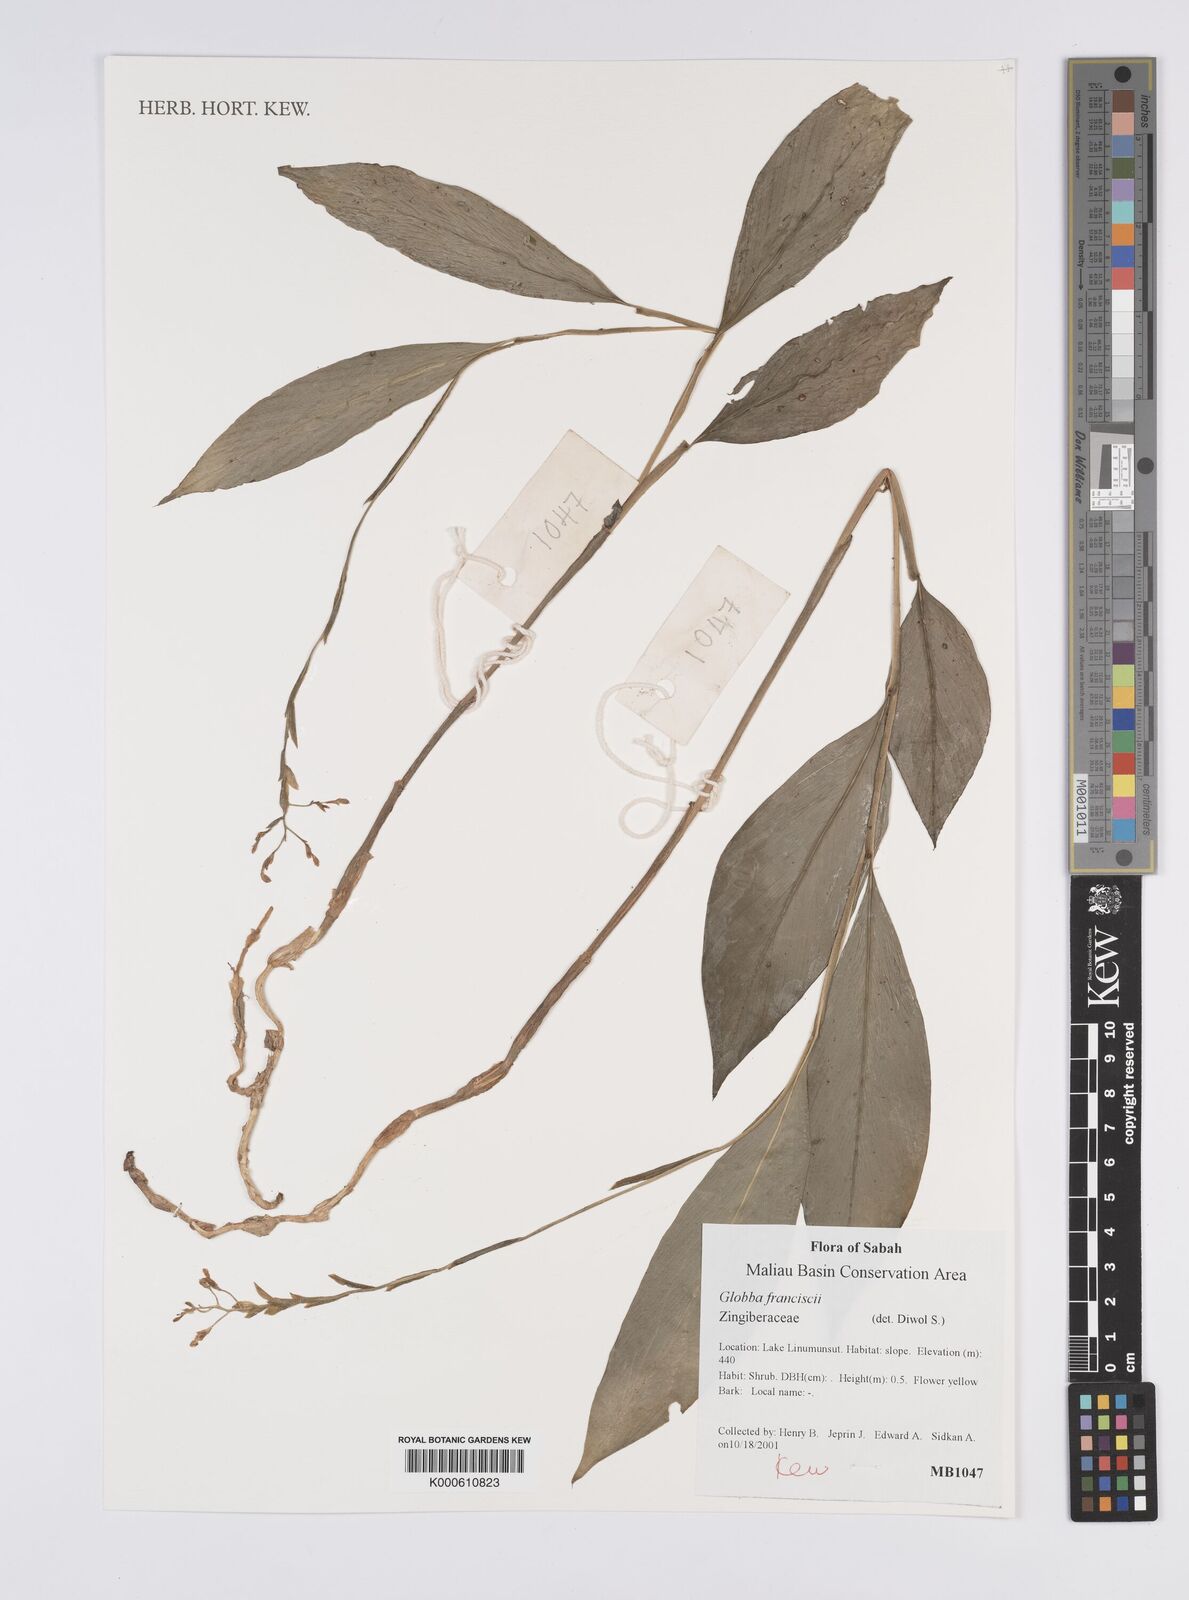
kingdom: Plantae
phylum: Tracheophyta
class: Liliopsida
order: Zingiberales
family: Zingiberaceae
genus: Globba
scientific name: Globba francisci
